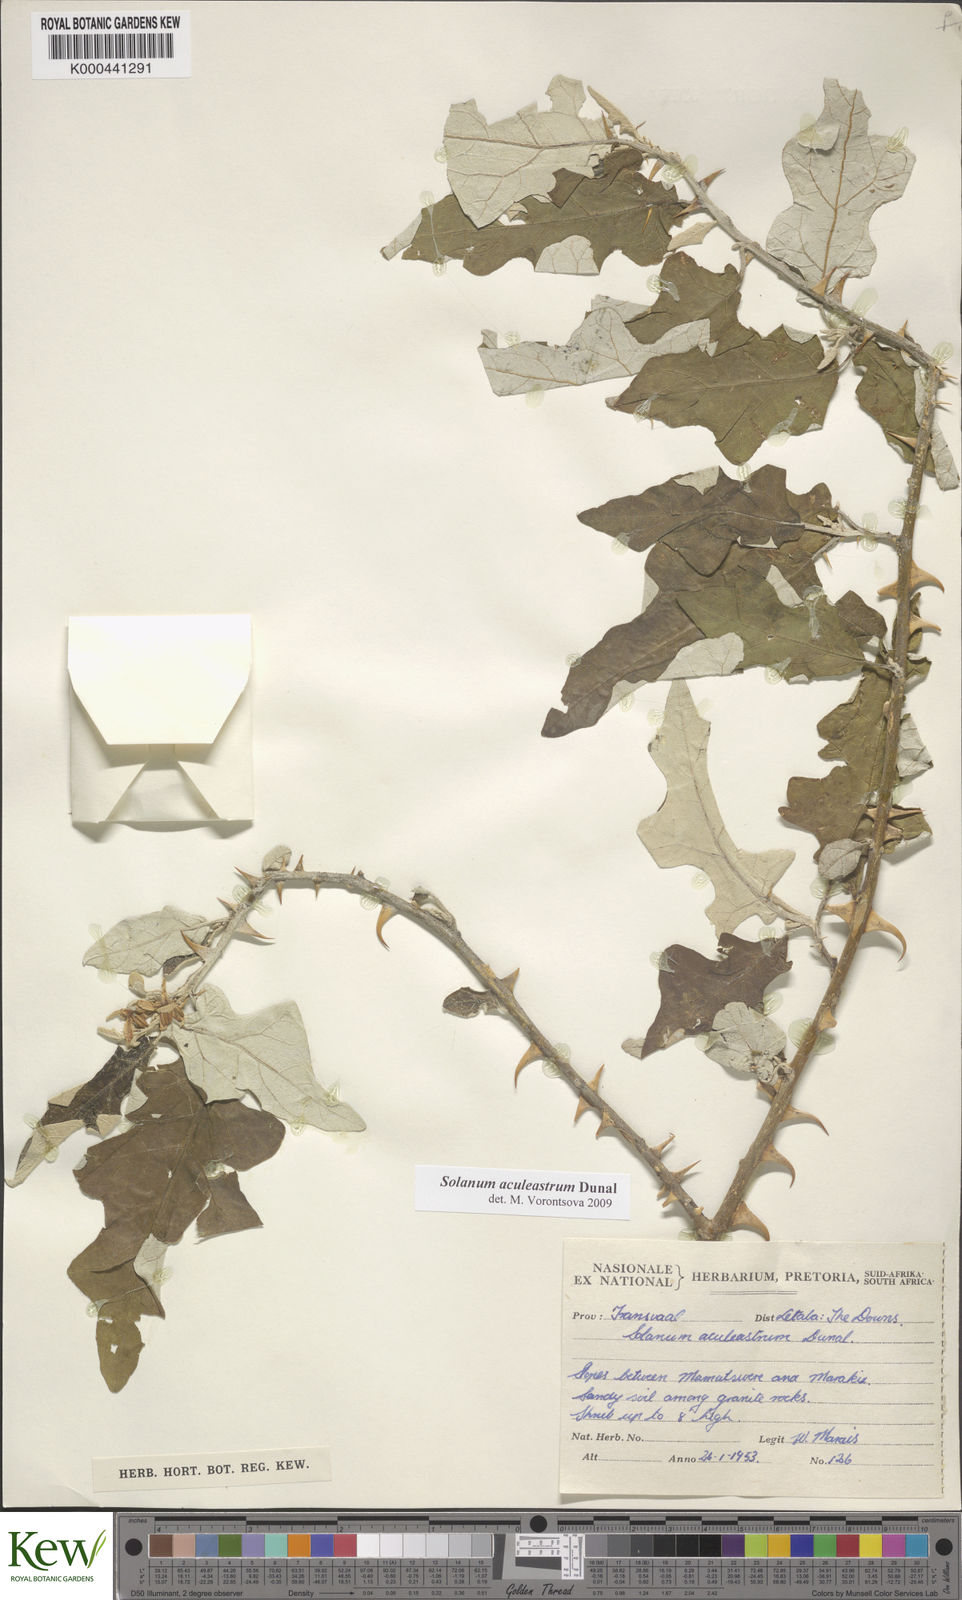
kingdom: Plantae
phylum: Tracheophyta
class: Magnoliopsida
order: Solanales
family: Solanaceae
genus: Solanum
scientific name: Solanum aculeastrum
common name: Goat bitter-apple
